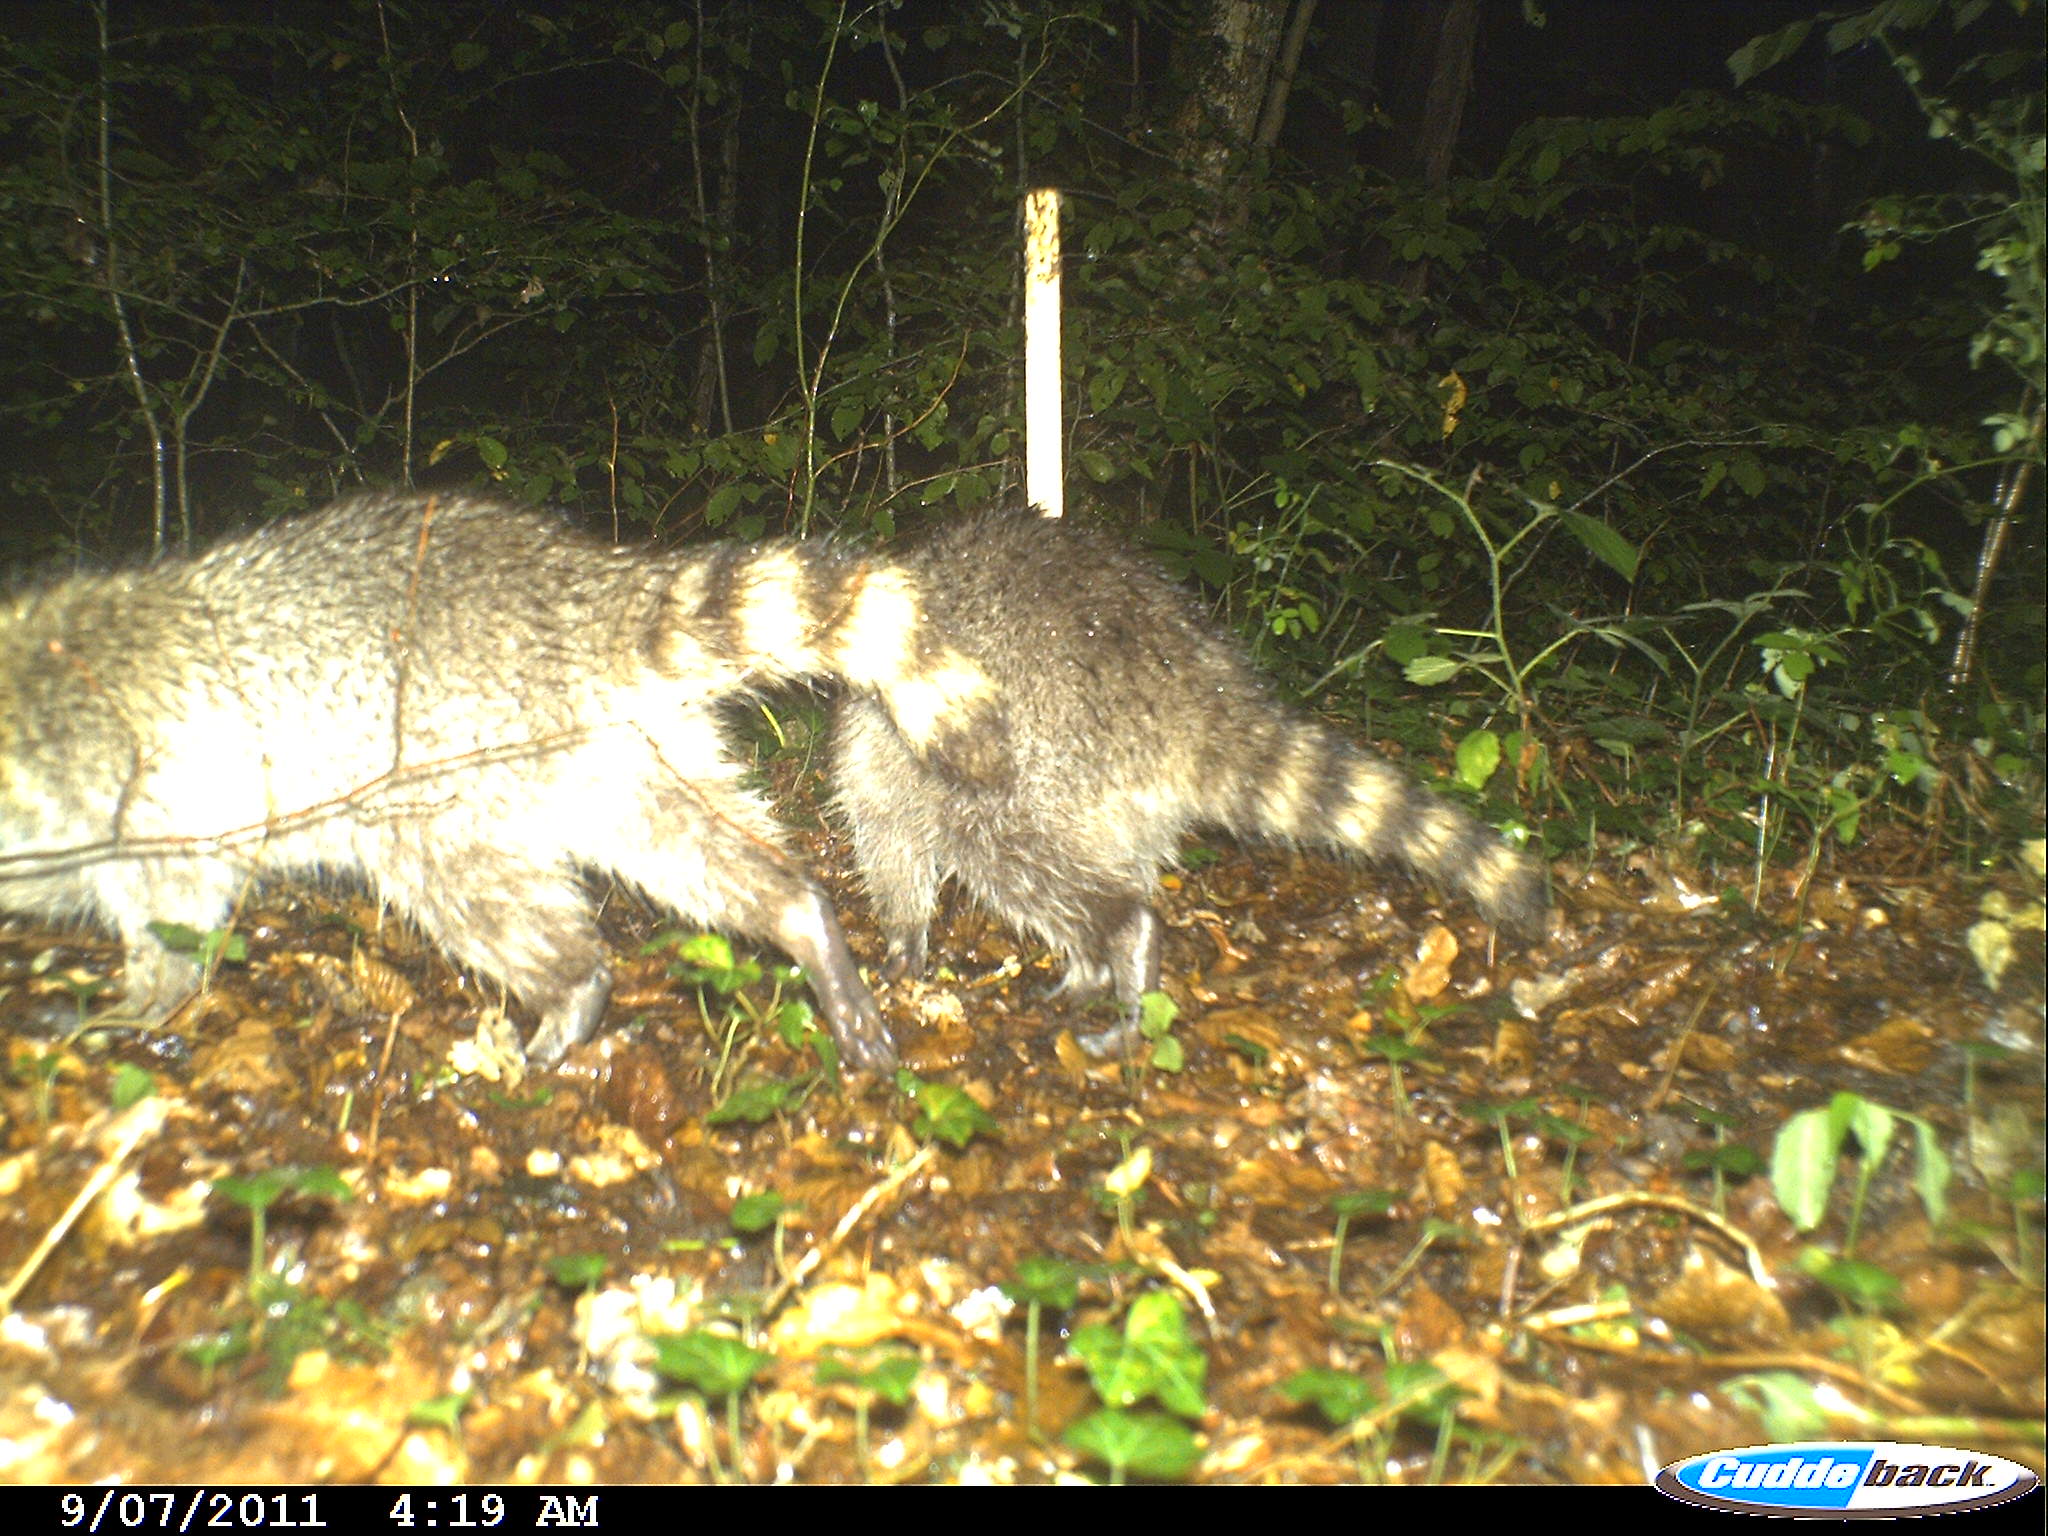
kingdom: Animalia
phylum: Chordata
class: Mammalia
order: Carnivora
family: Procyonidae
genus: Procyon
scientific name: Procyon lotor
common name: Raccoon
